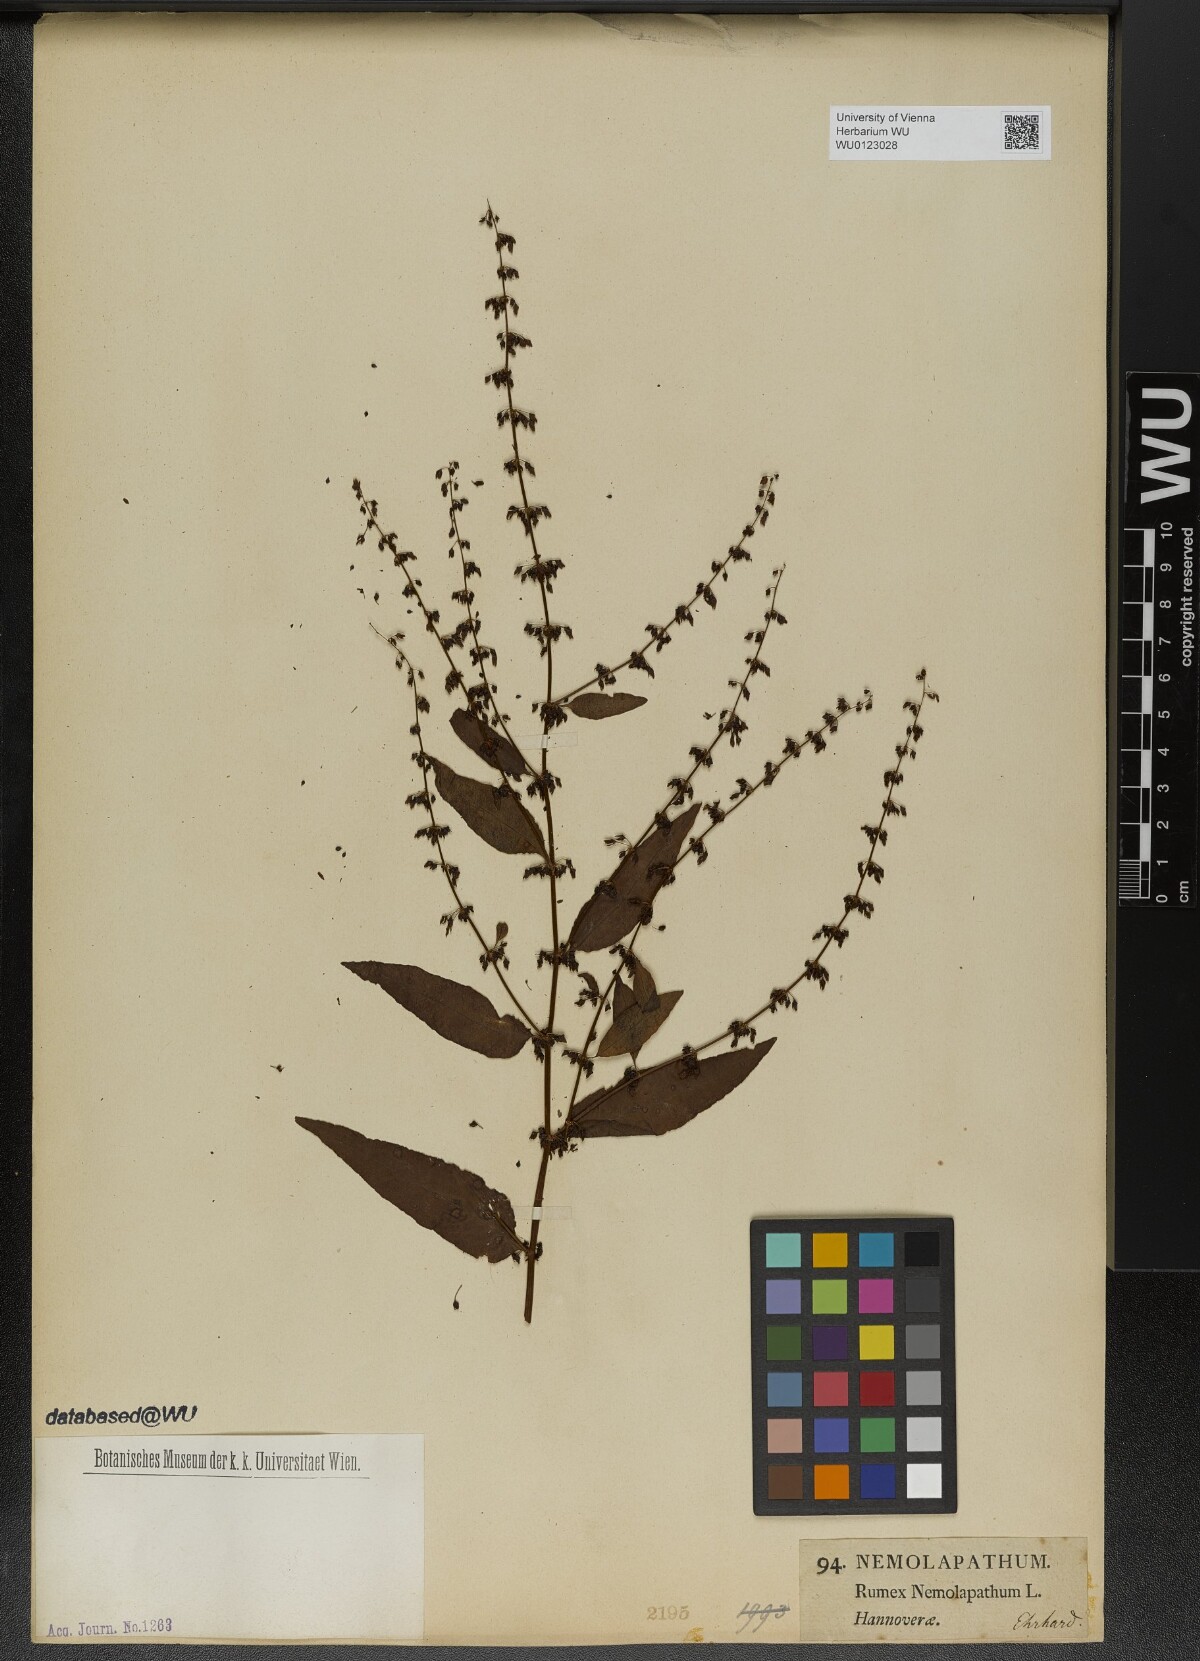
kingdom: Plantae
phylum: Tracheophyta
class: Magnoliopsida
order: Caryophyllales
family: Polygonaceae
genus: Rumex
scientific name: Rumex conglomeratus
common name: Clustered dock
